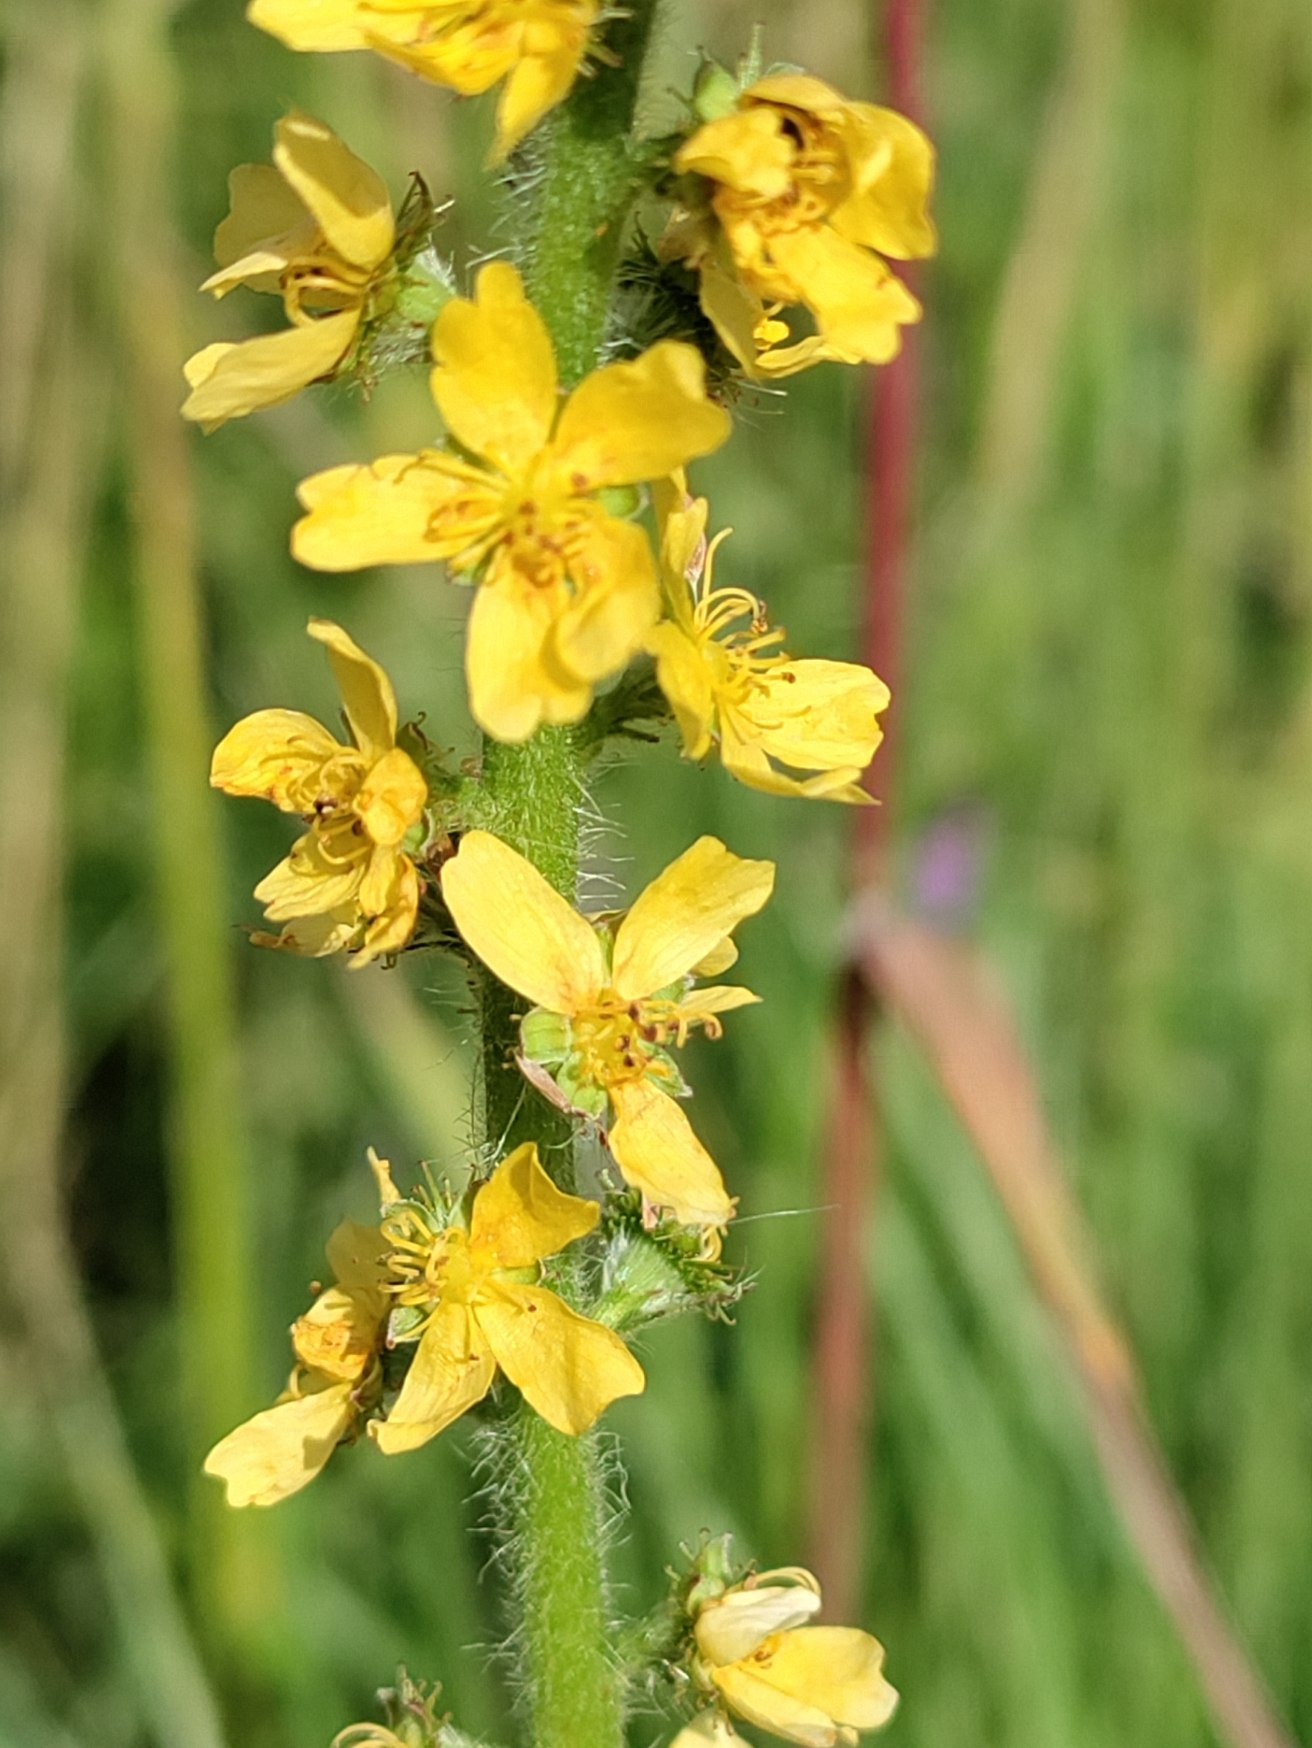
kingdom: Plantae
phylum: Tracheophyta
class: Magnoliopsida
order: Rosales
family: Rosaceae
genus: Agrimonia
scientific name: Agrimonia eupatoria
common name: Almindelig agermåne
